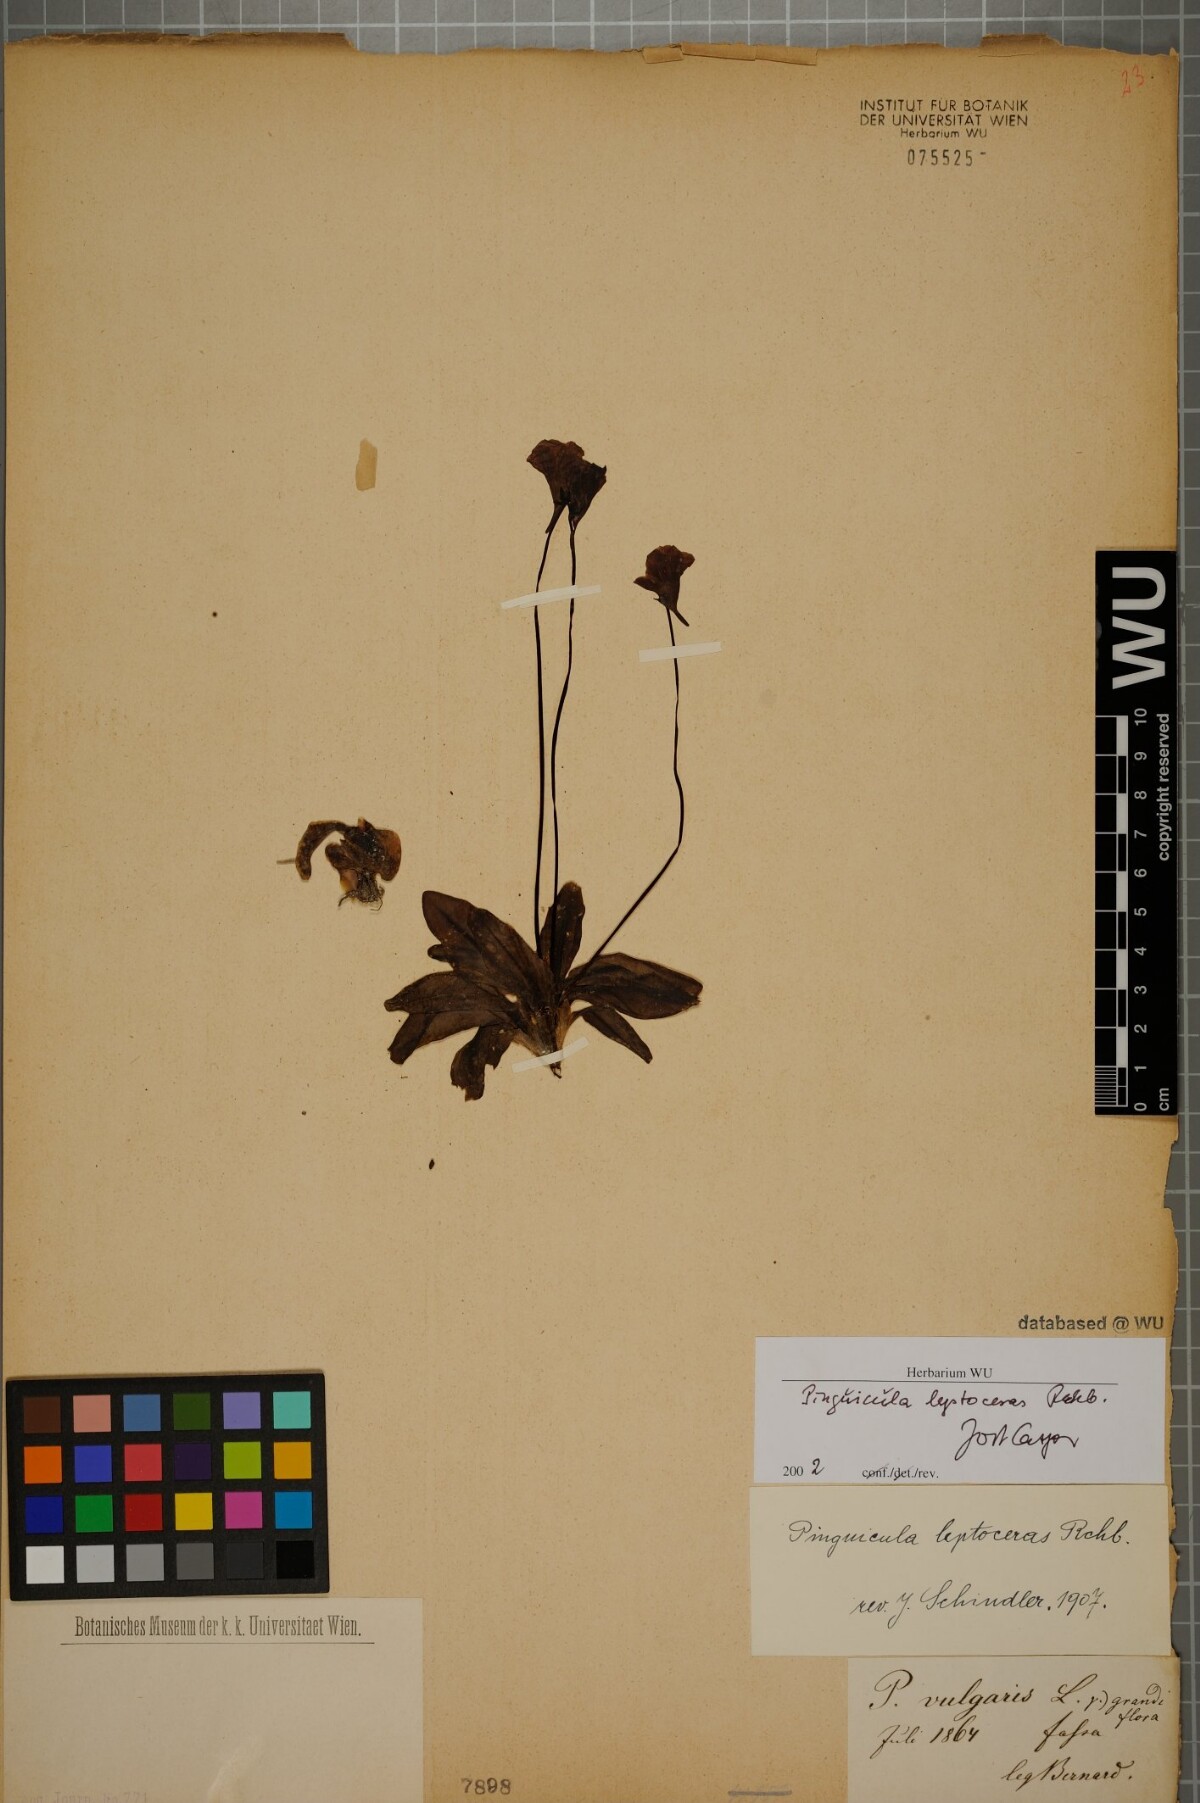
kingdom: Plantae
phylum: Tracheophyta
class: Magnoliopsida
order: Lamiales
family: Lentibulariaceae
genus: Pinguicula
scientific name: Pinguicula leptoceras
